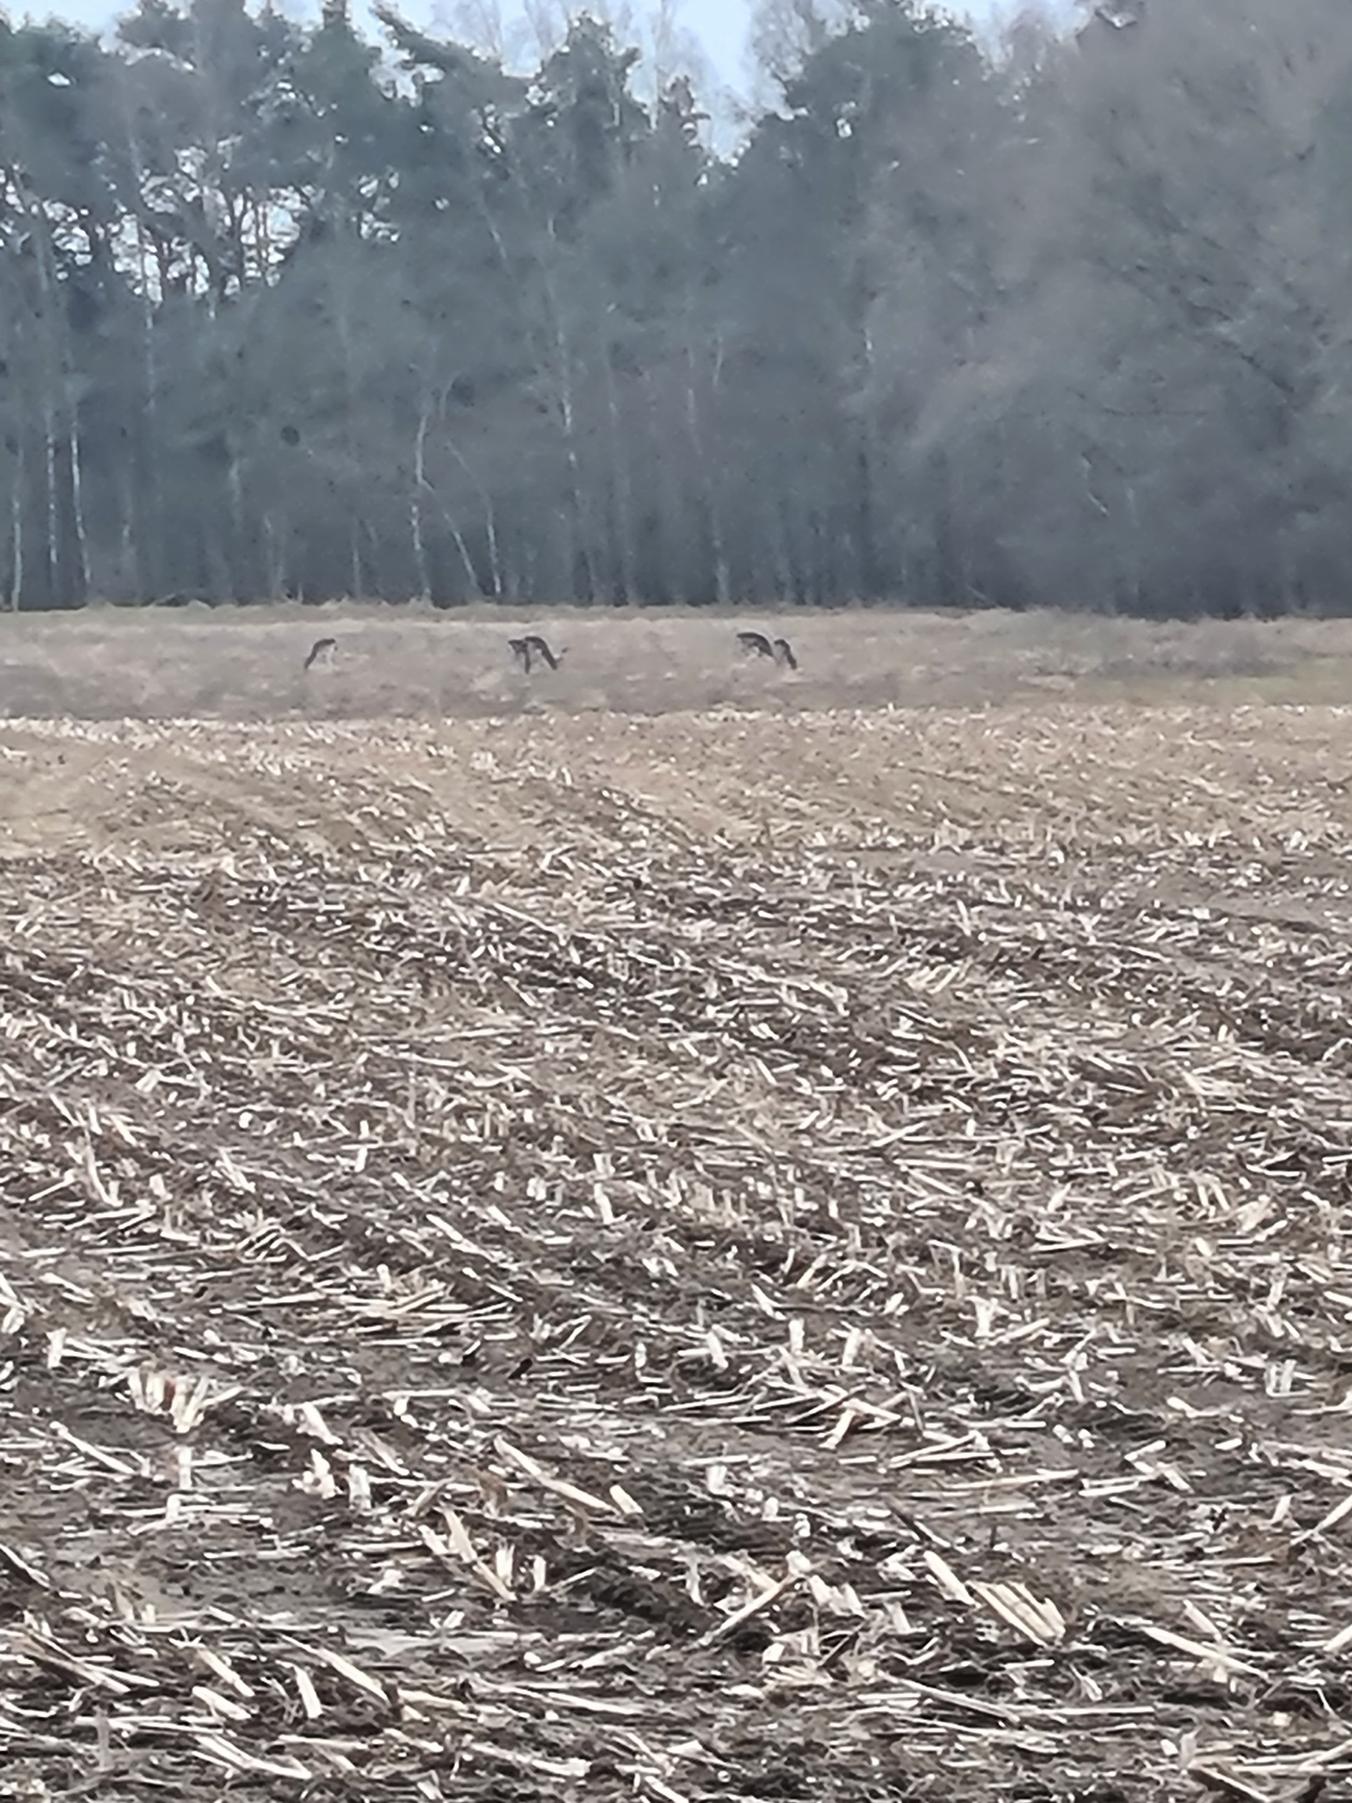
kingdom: Animalia
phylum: Chordata
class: Mammalia
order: Artiodactyla
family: Cervidae
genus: Dama
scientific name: Dama dama
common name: Dådyr
